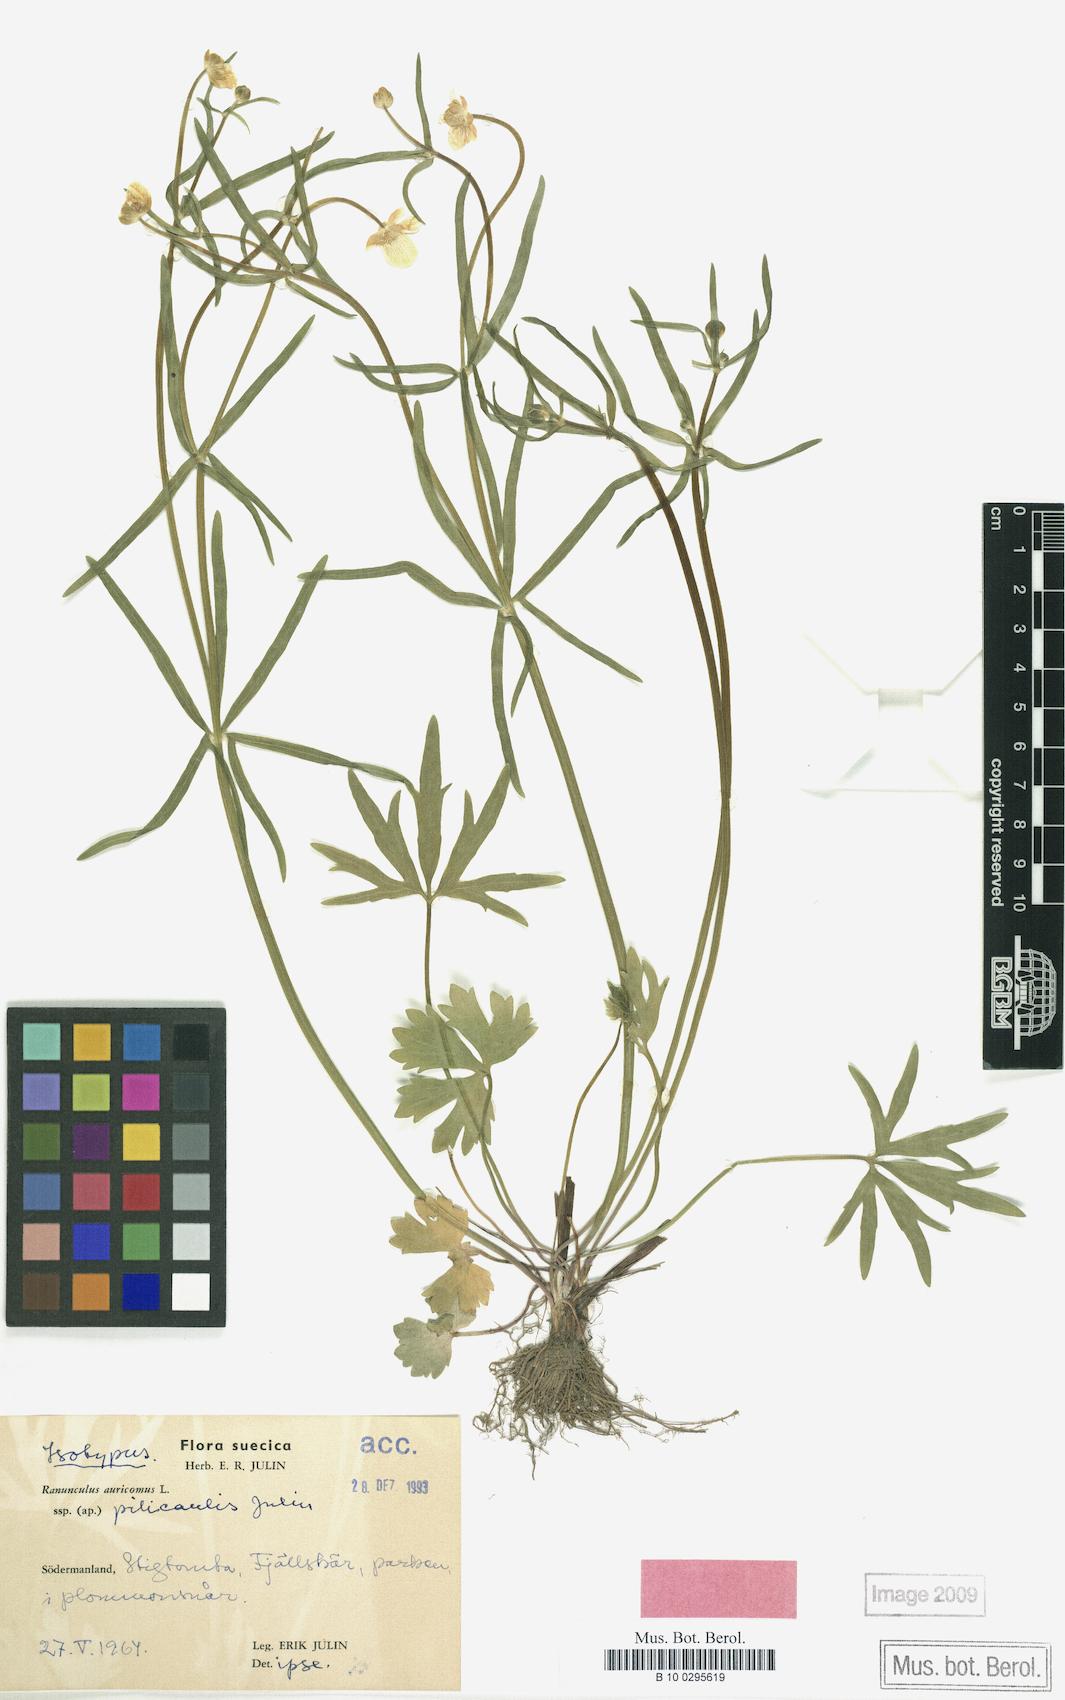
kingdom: Plantae
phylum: Tracheophyta
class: Magnoliopsida
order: Ranunculales
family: Ranunculaceae
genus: Ranunculus
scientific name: Ranunculus pilicaulis
